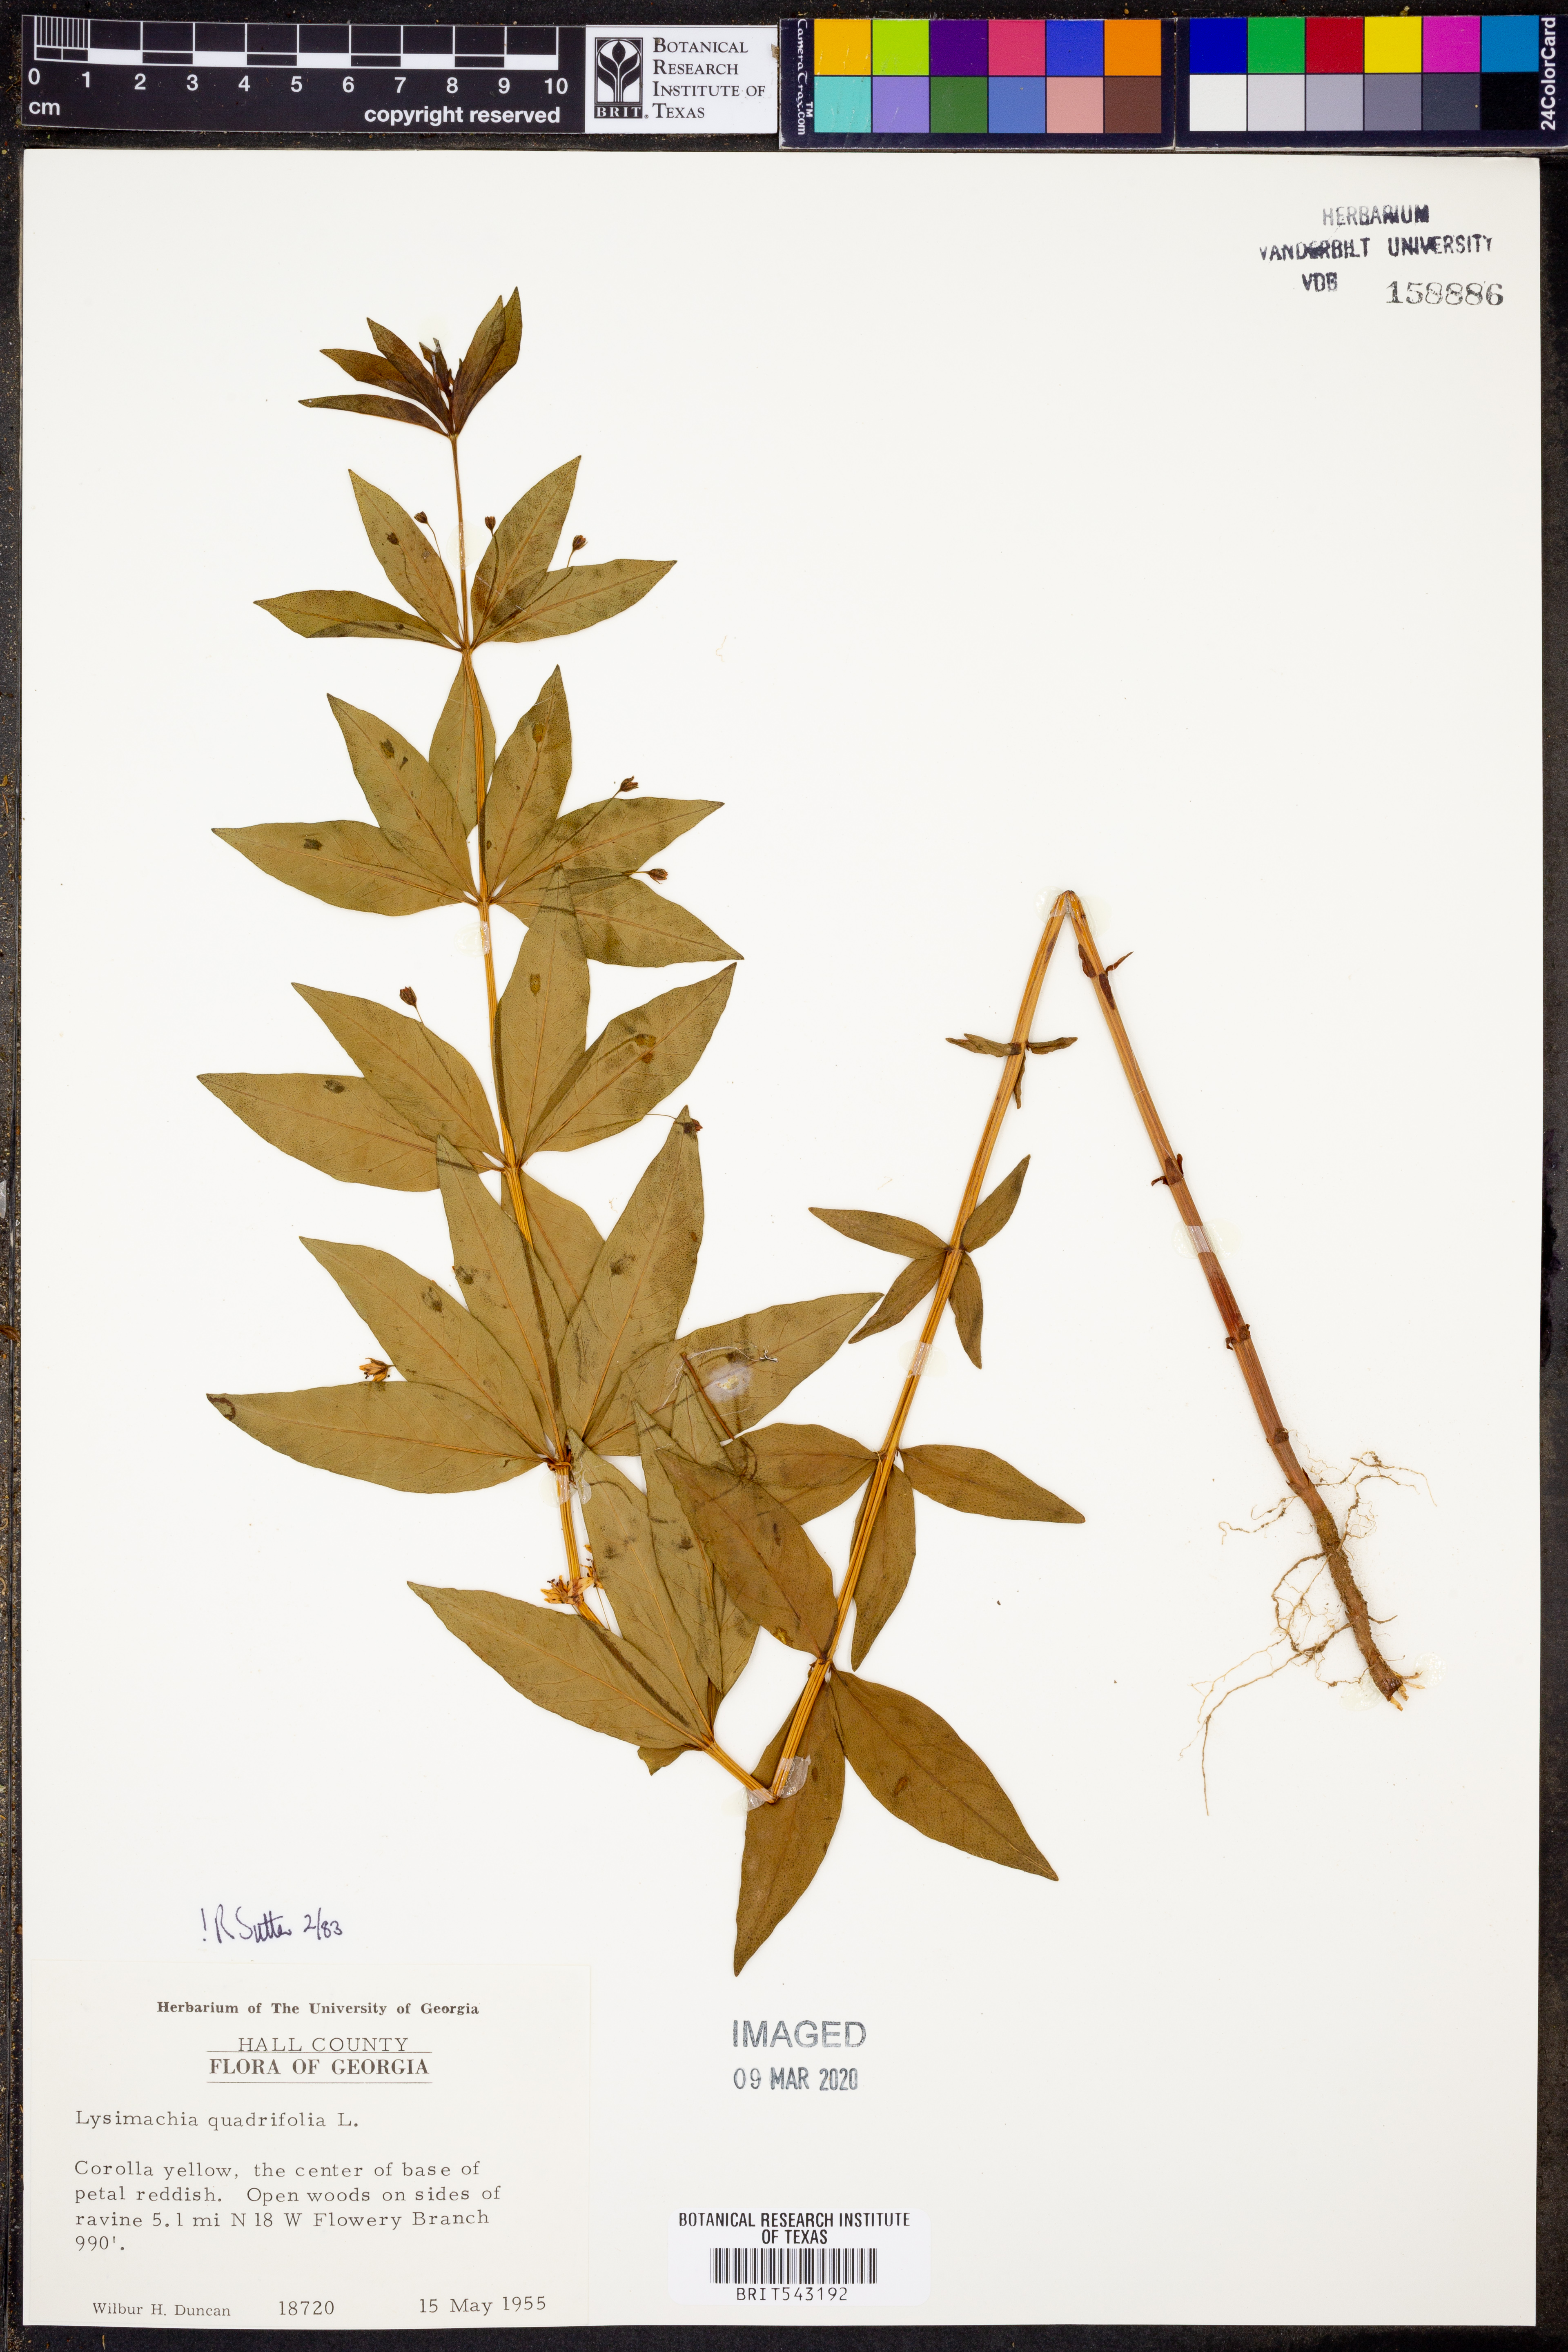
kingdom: Plantae
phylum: Tracheophyta
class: Magnoliopsida
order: Ericales
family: Primulaceae
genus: Lysimachia
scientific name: Lysimachia quadrifolia
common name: Whorled loosestrife
